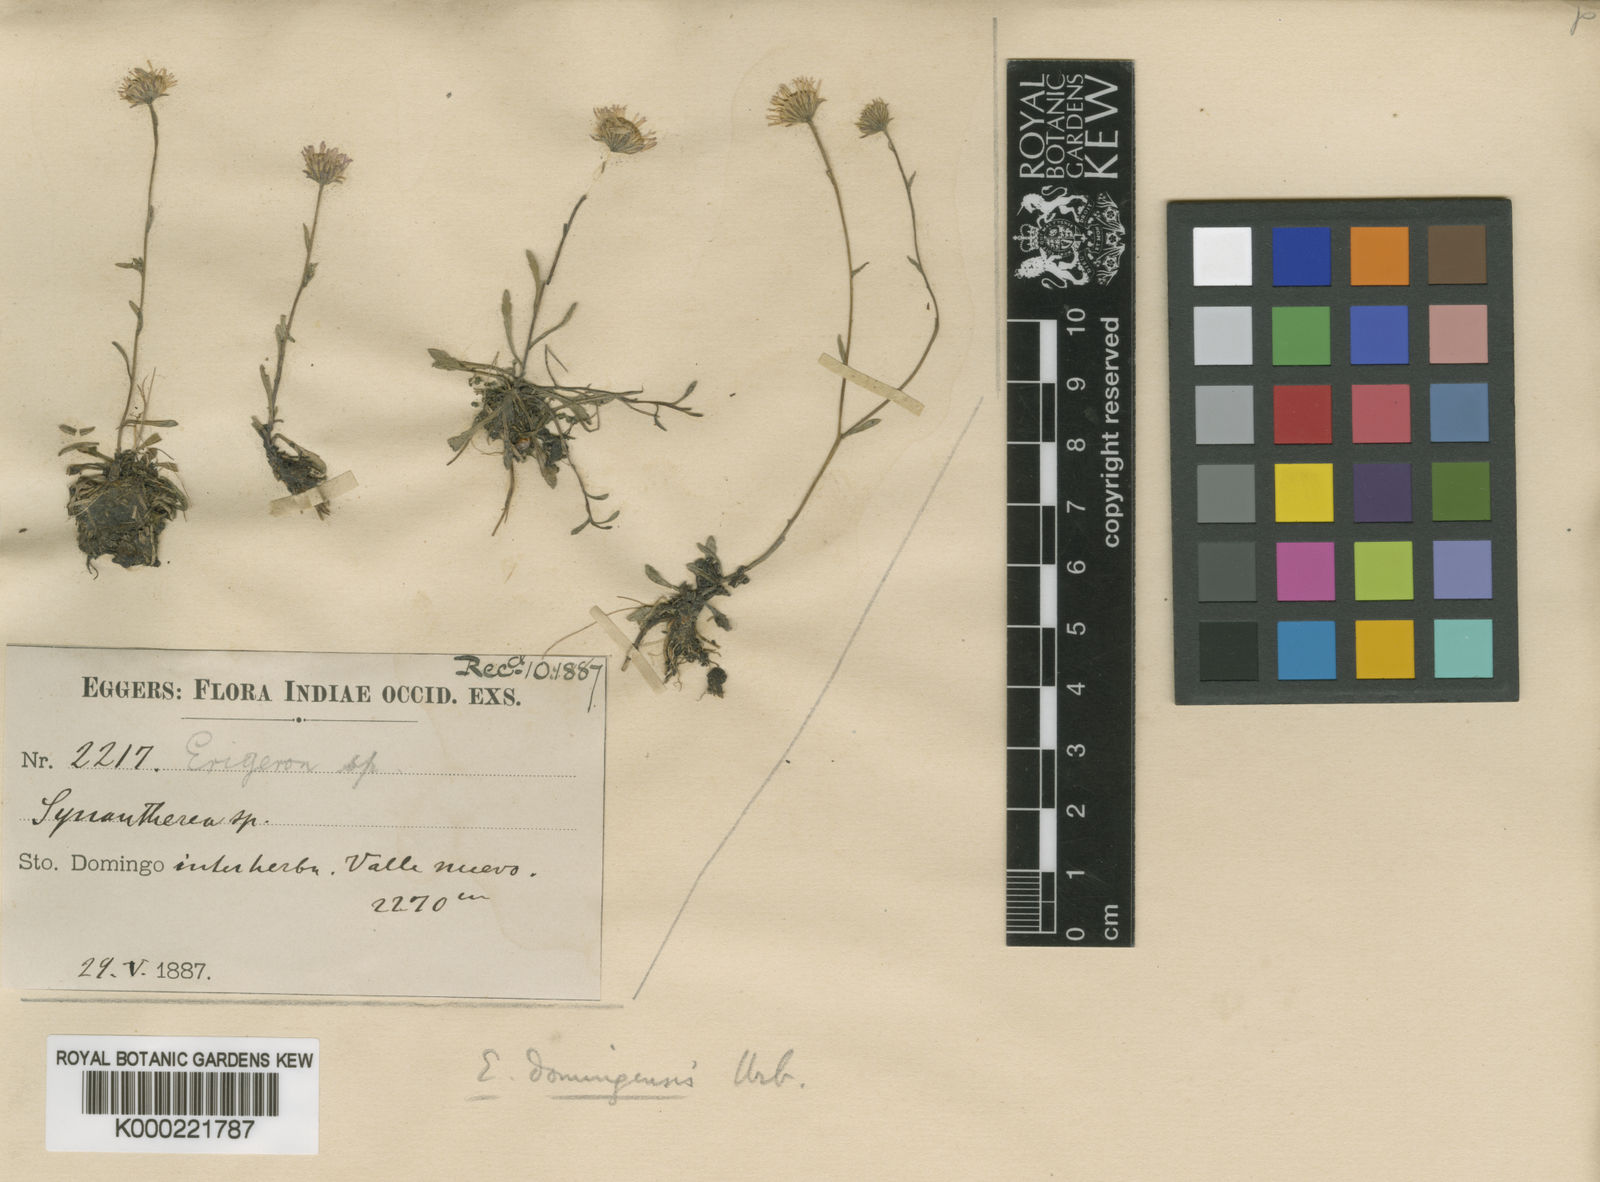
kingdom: Plantae
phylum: Tracheophyta
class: Magnoliopsida
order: Asterales
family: Asteraceae
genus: Erigeron
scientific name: Erigeron domingensis
